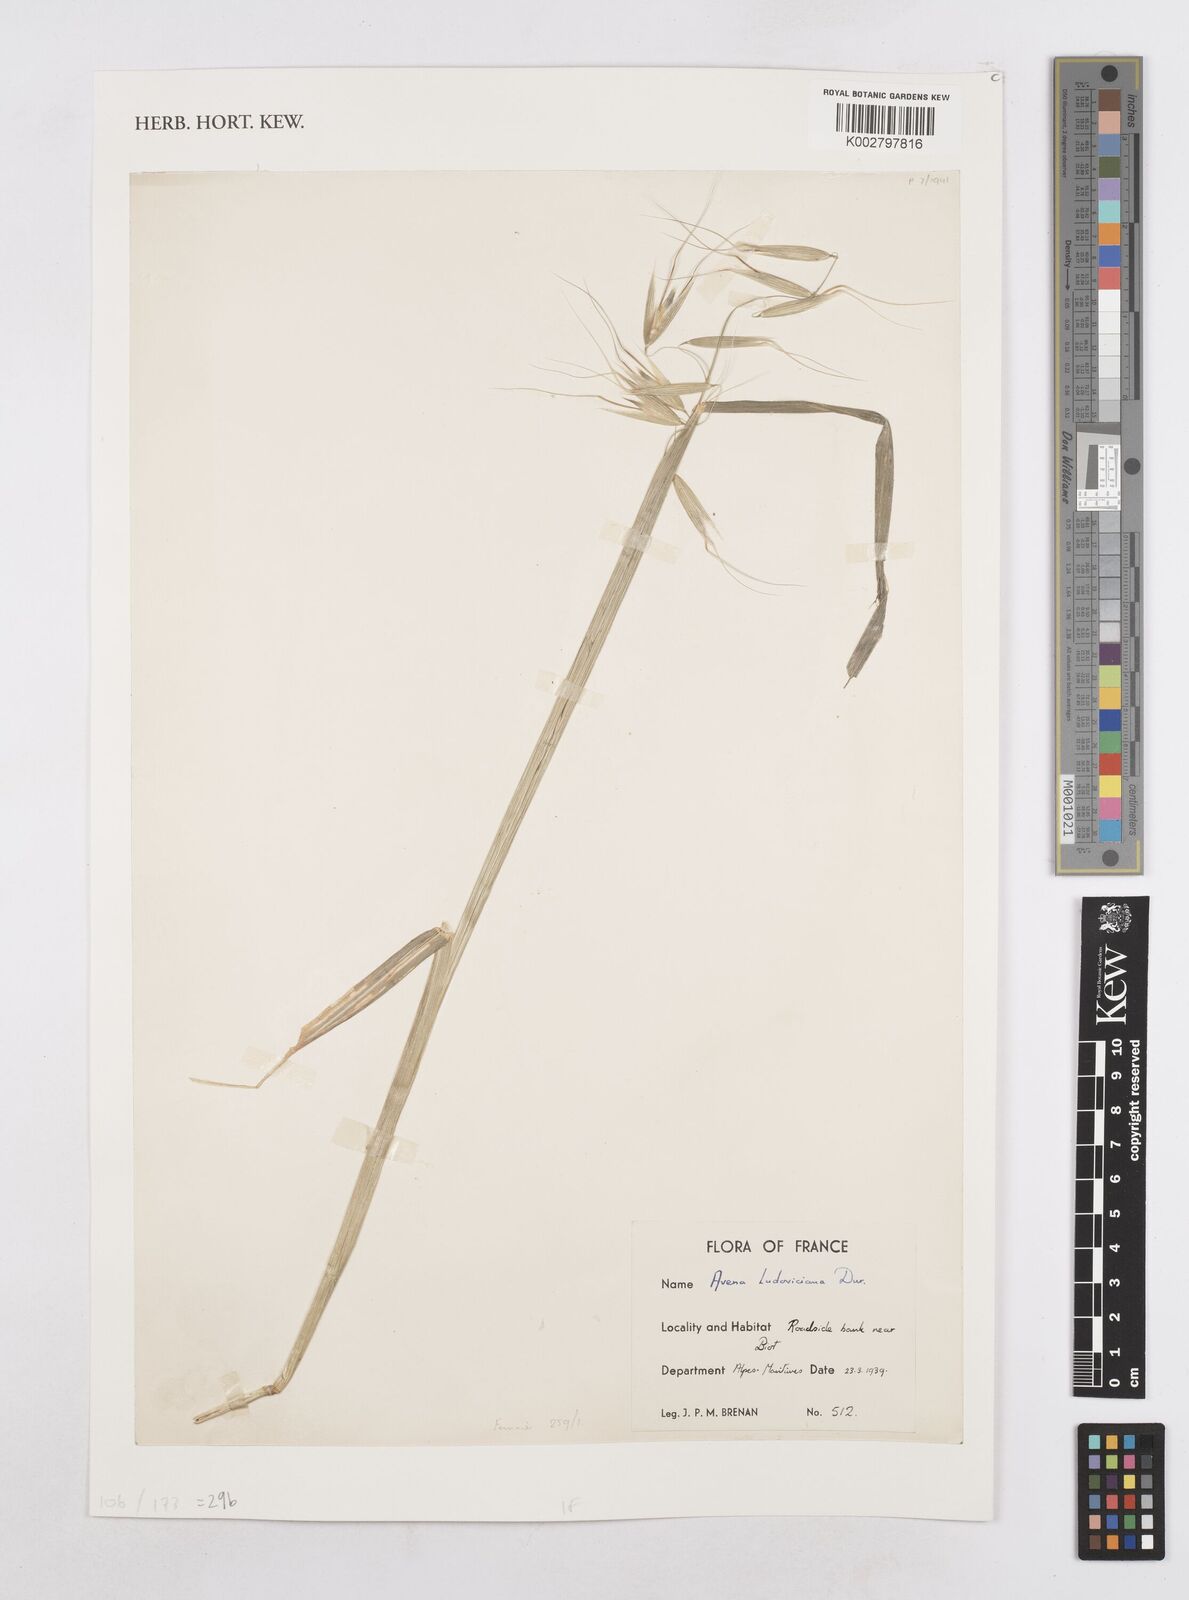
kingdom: Plantae
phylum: Tracheophyta
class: Liliopsida
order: Poales
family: Poaceae
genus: Avena
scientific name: Avena sterilis
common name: Animated oat
